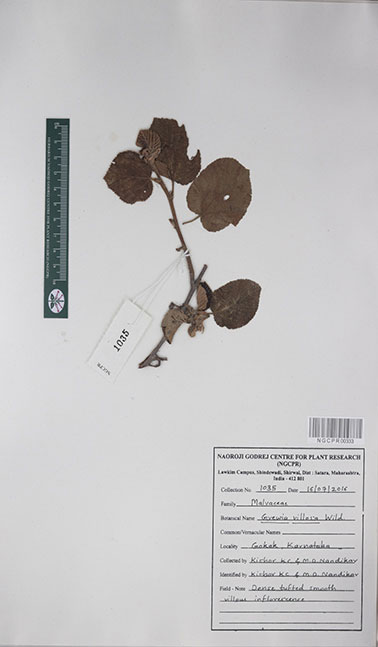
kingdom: Plantae
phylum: Tracheophyta
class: Magnoliopsida
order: Malvales
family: Malvaceae
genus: Grewia
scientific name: Grewia villosa
